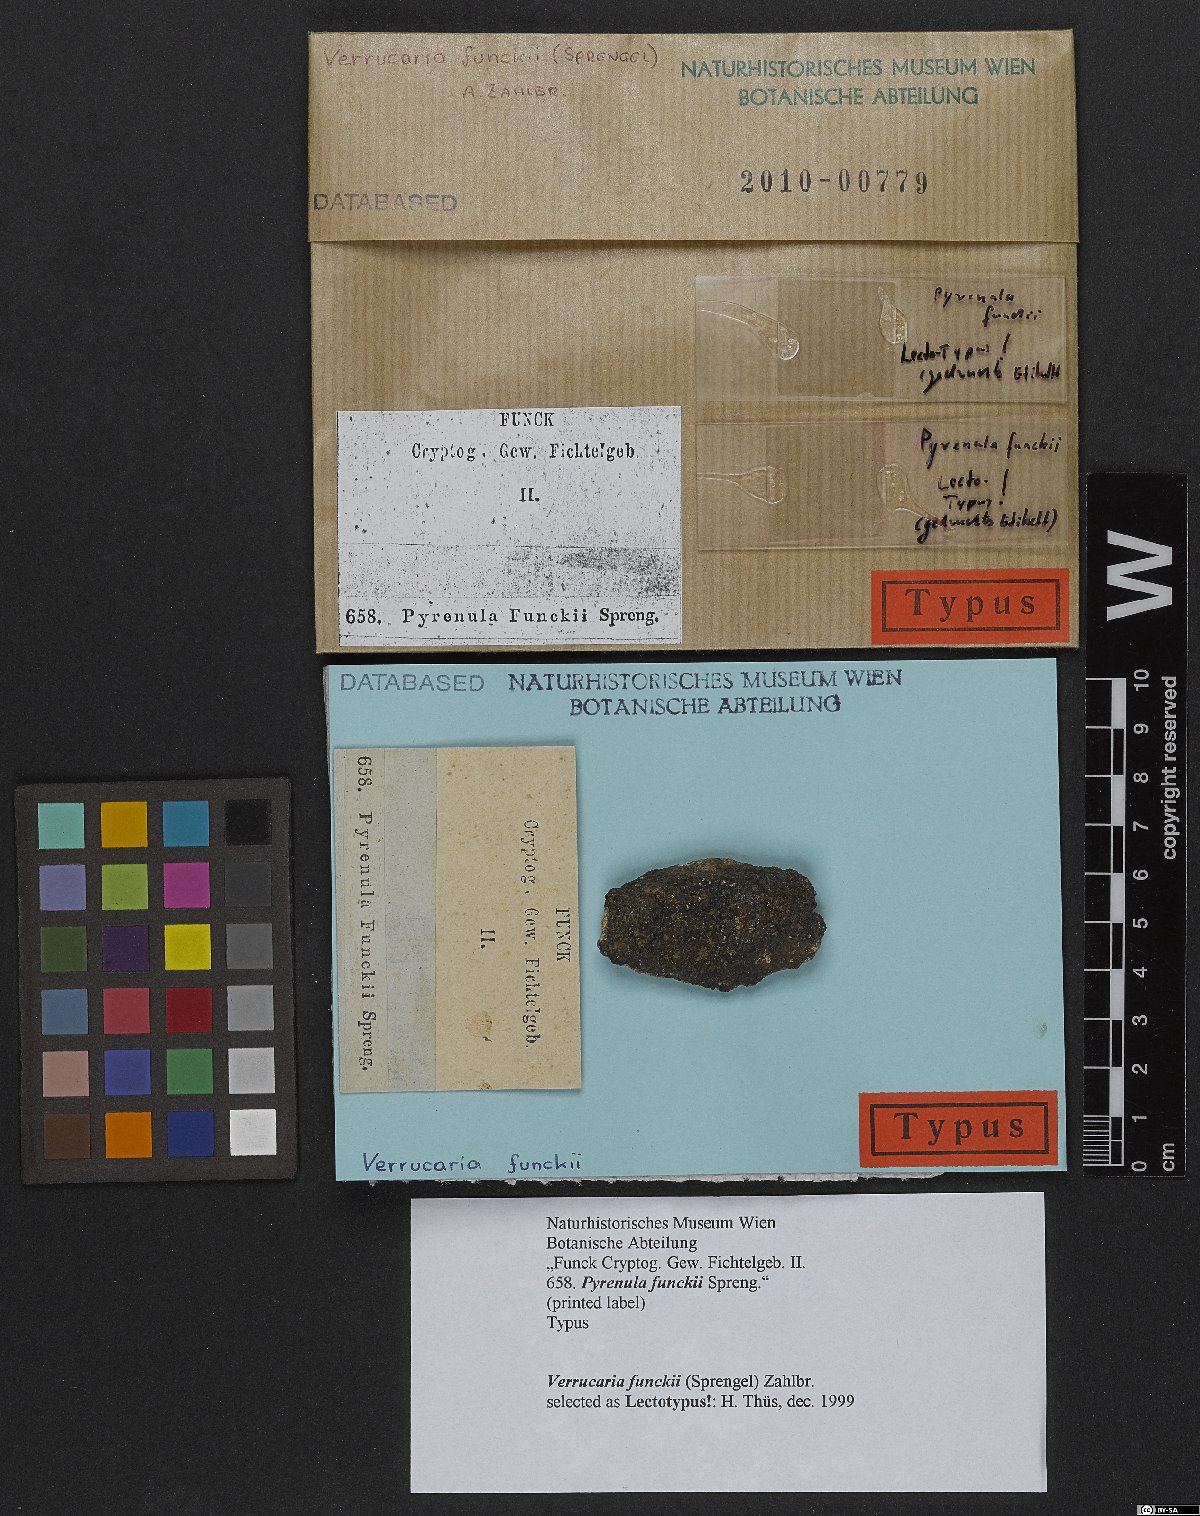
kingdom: Fungi
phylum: Ascomycota
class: Eurotiomycetes
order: Verrucariales
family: Verrucariaceae
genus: Verrucaria
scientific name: Verrucaria funckii
